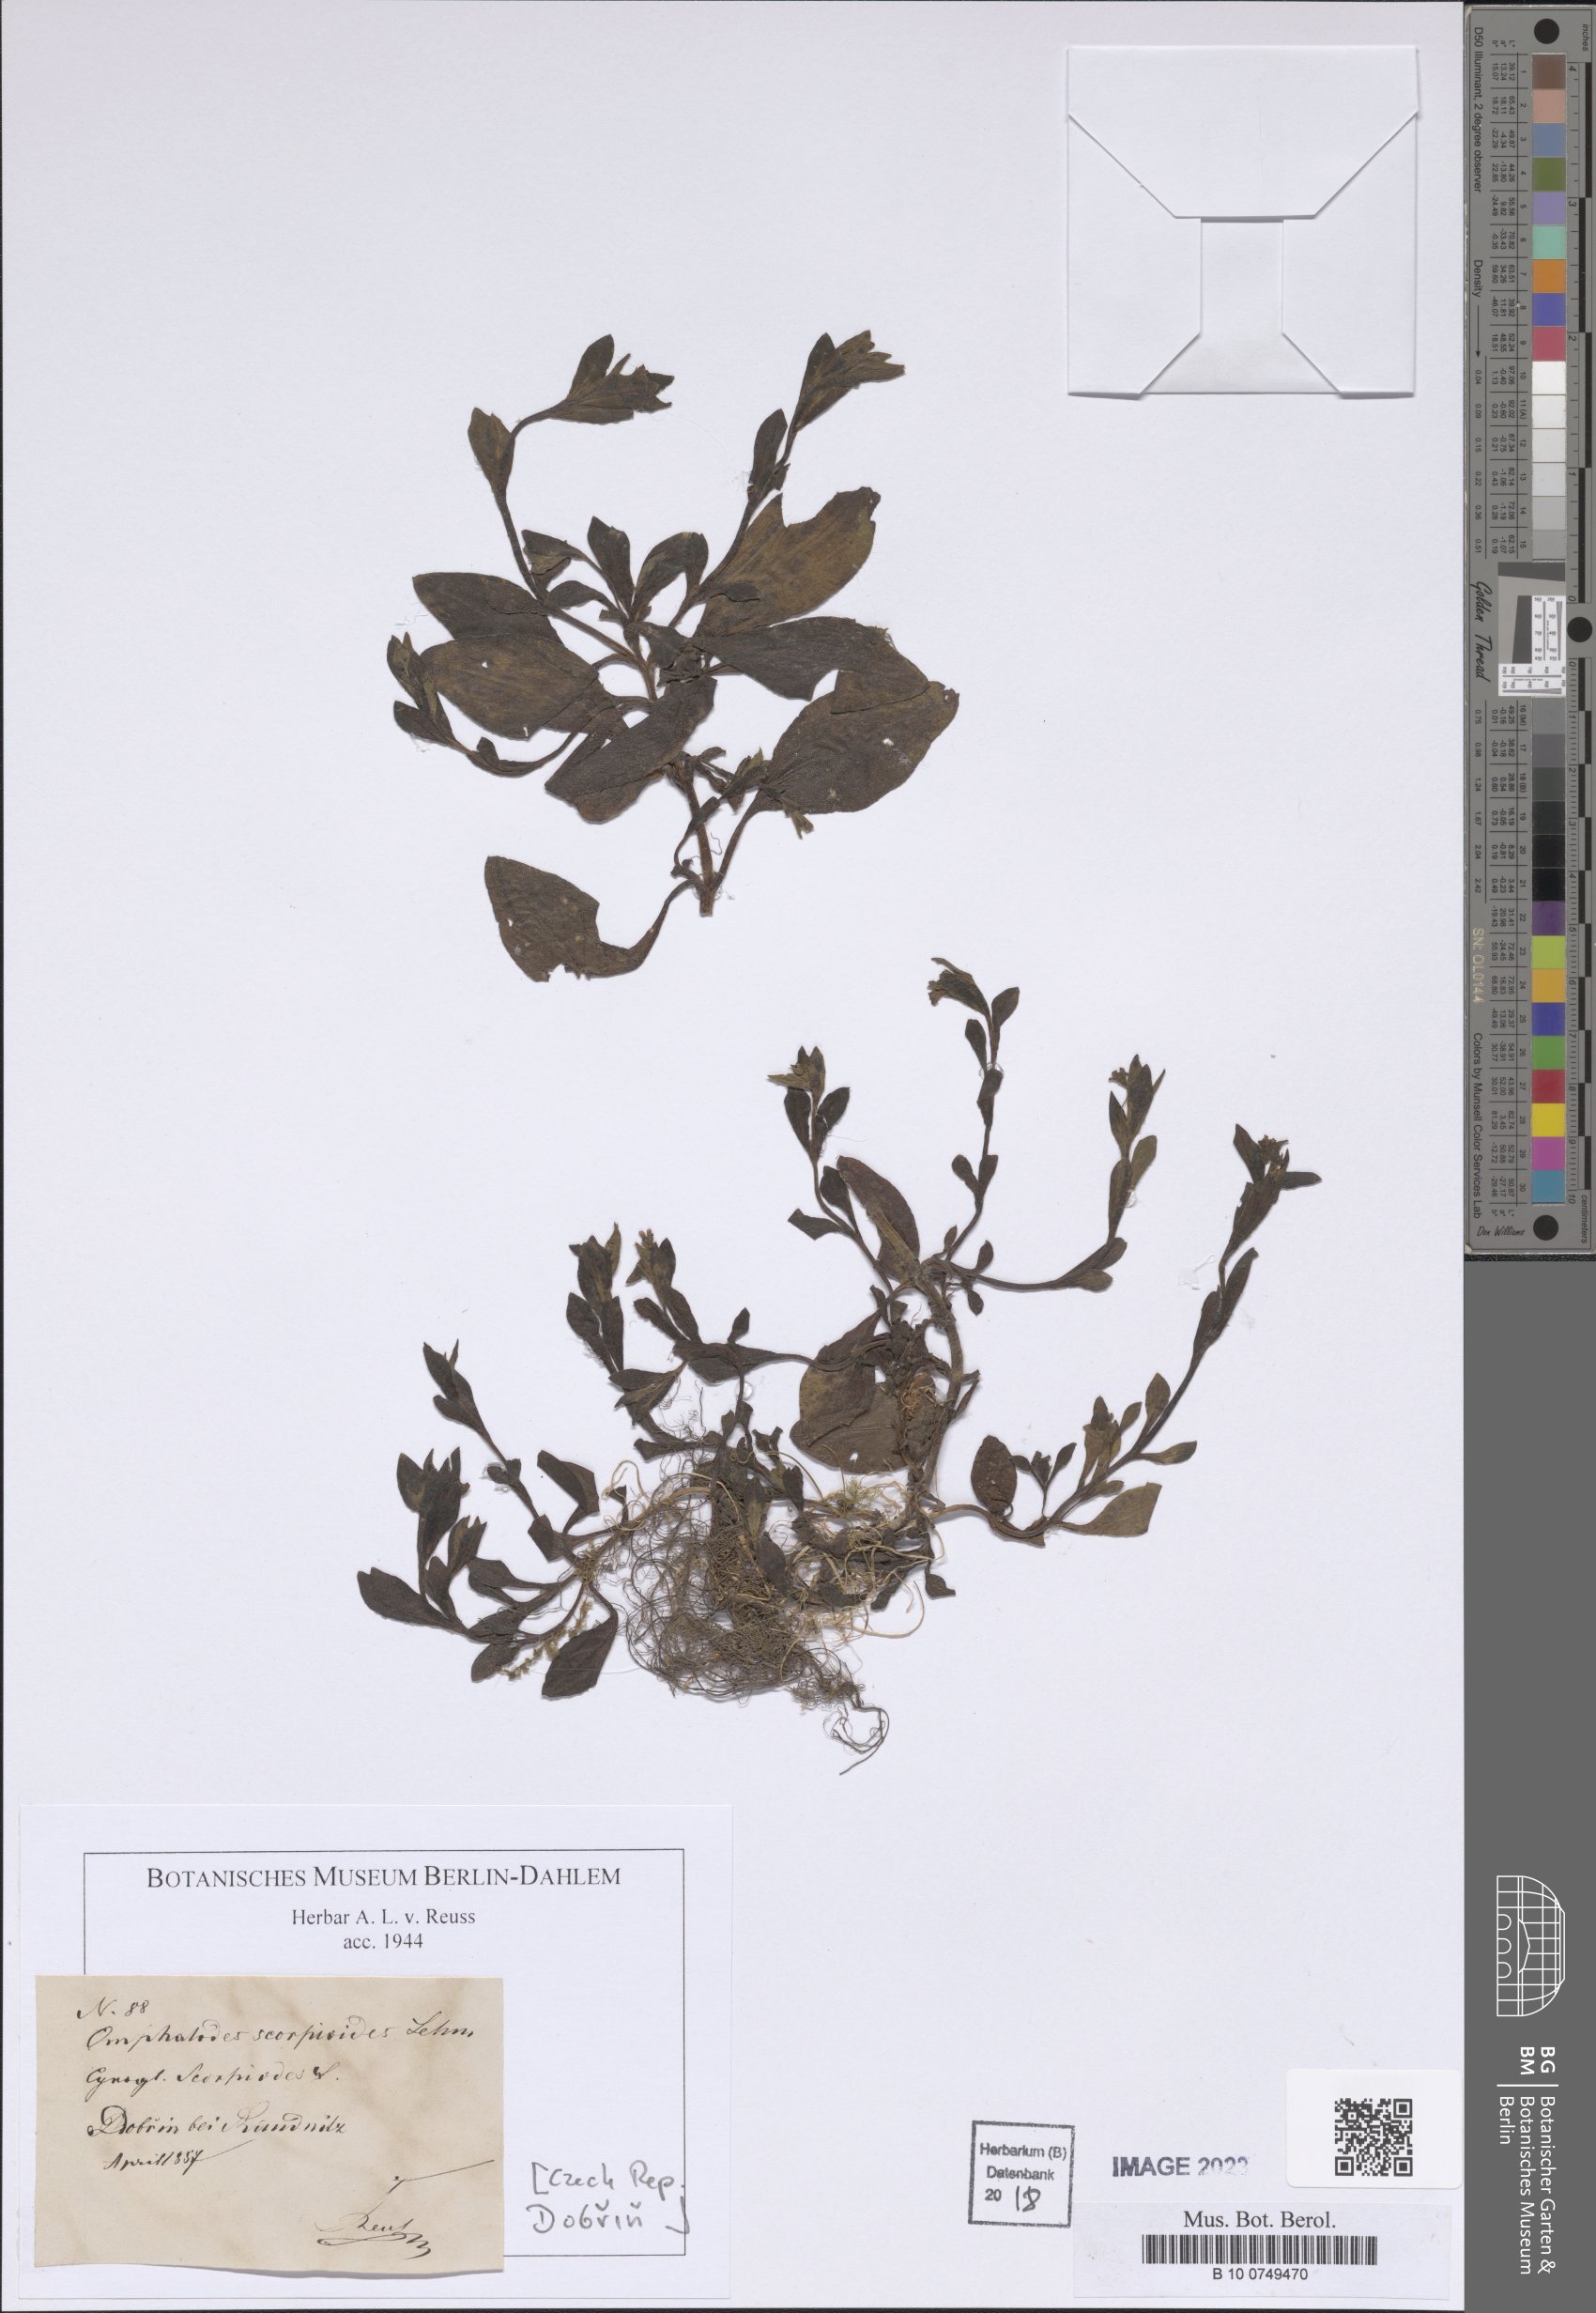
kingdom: Plantae
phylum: Tracheophyta
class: Magnoliopsida
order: Boraginales
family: Boraginaceae
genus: Memoremea
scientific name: Memoremea scorpioides
